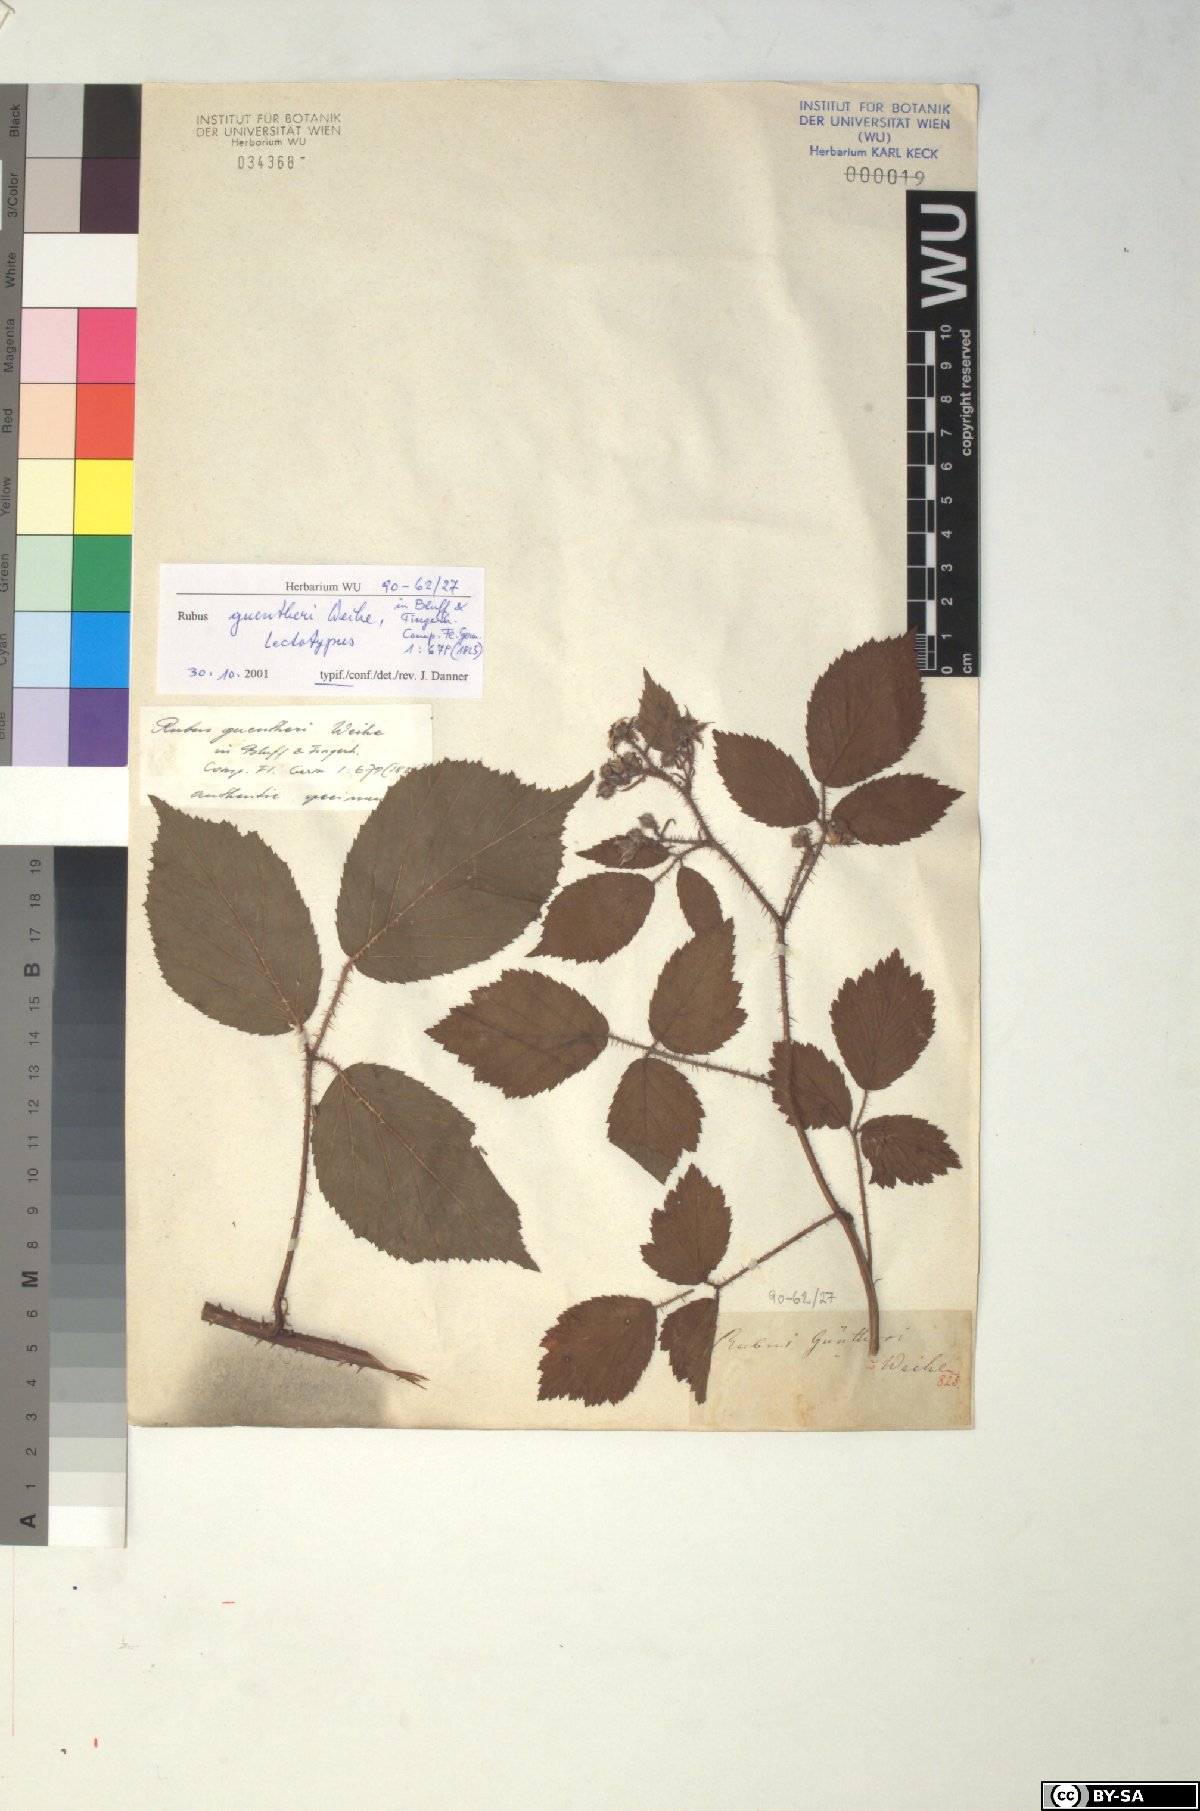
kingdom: Plantae
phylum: Tracheophyta
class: Magnoliopsida
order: Rosales
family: Rosaceae
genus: Rubus
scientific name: Rubus guentheri
